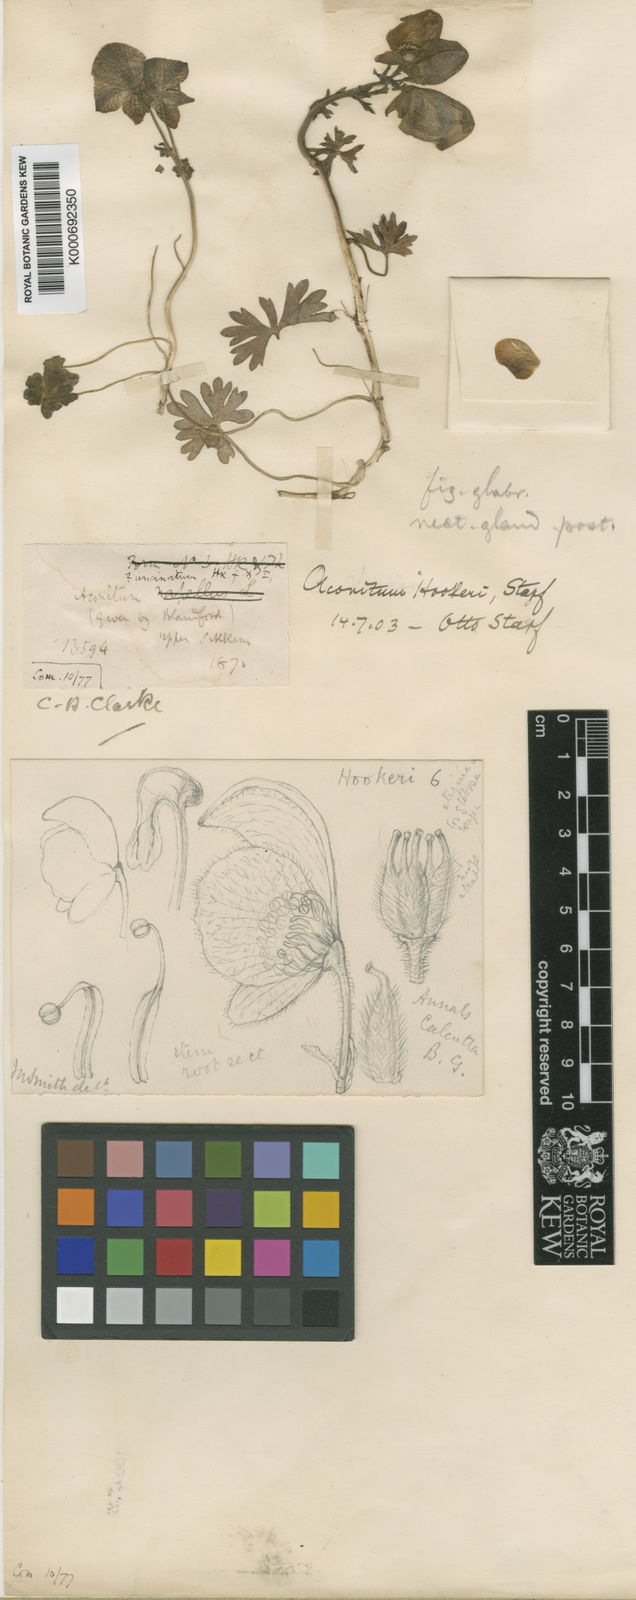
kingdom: Plantae
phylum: Tracheophyta
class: Magnoliopsida
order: Ranunculales
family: Ranunculaceae
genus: Aconitum
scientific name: Aconitum hookeri
